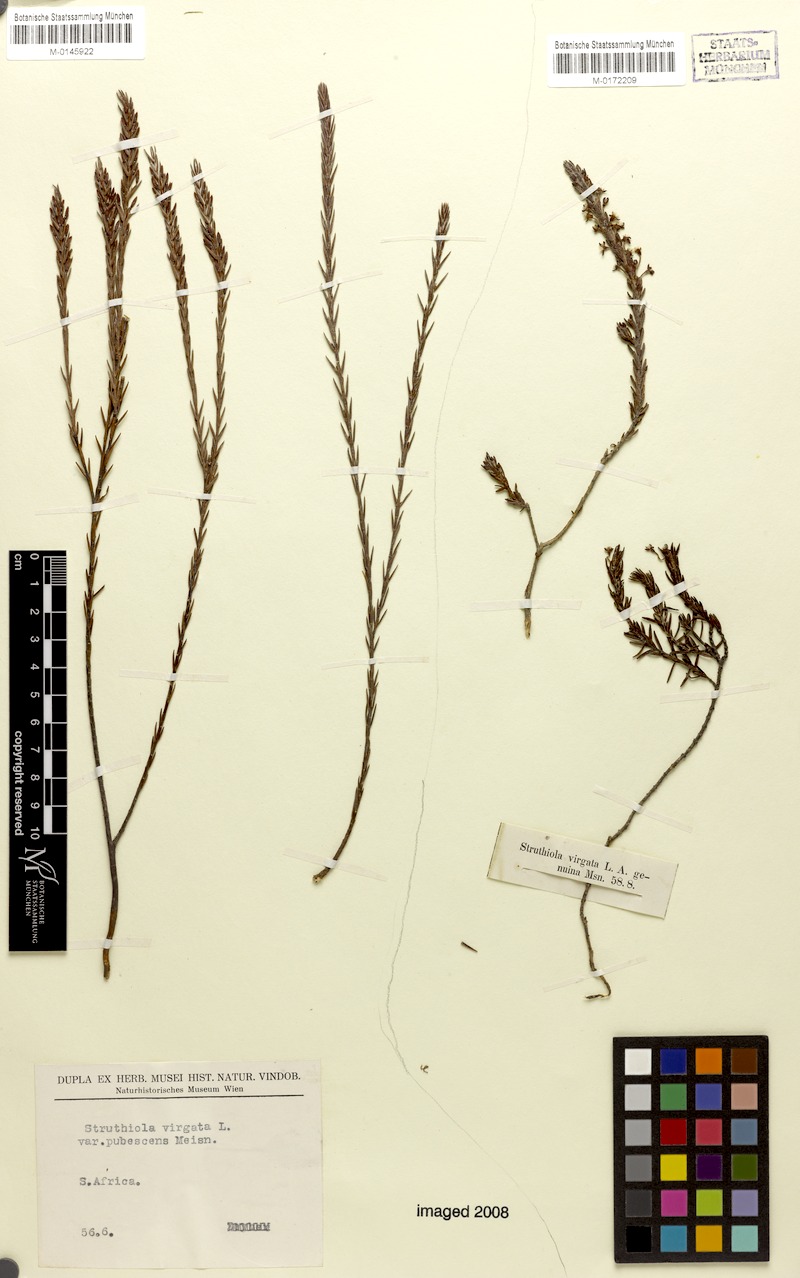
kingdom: Plantae
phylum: Tracheophyta
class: Magnoliopsida
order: Malvales
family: Thymelaeaceae
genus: Struthiola
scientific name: Struthiola ciliata
